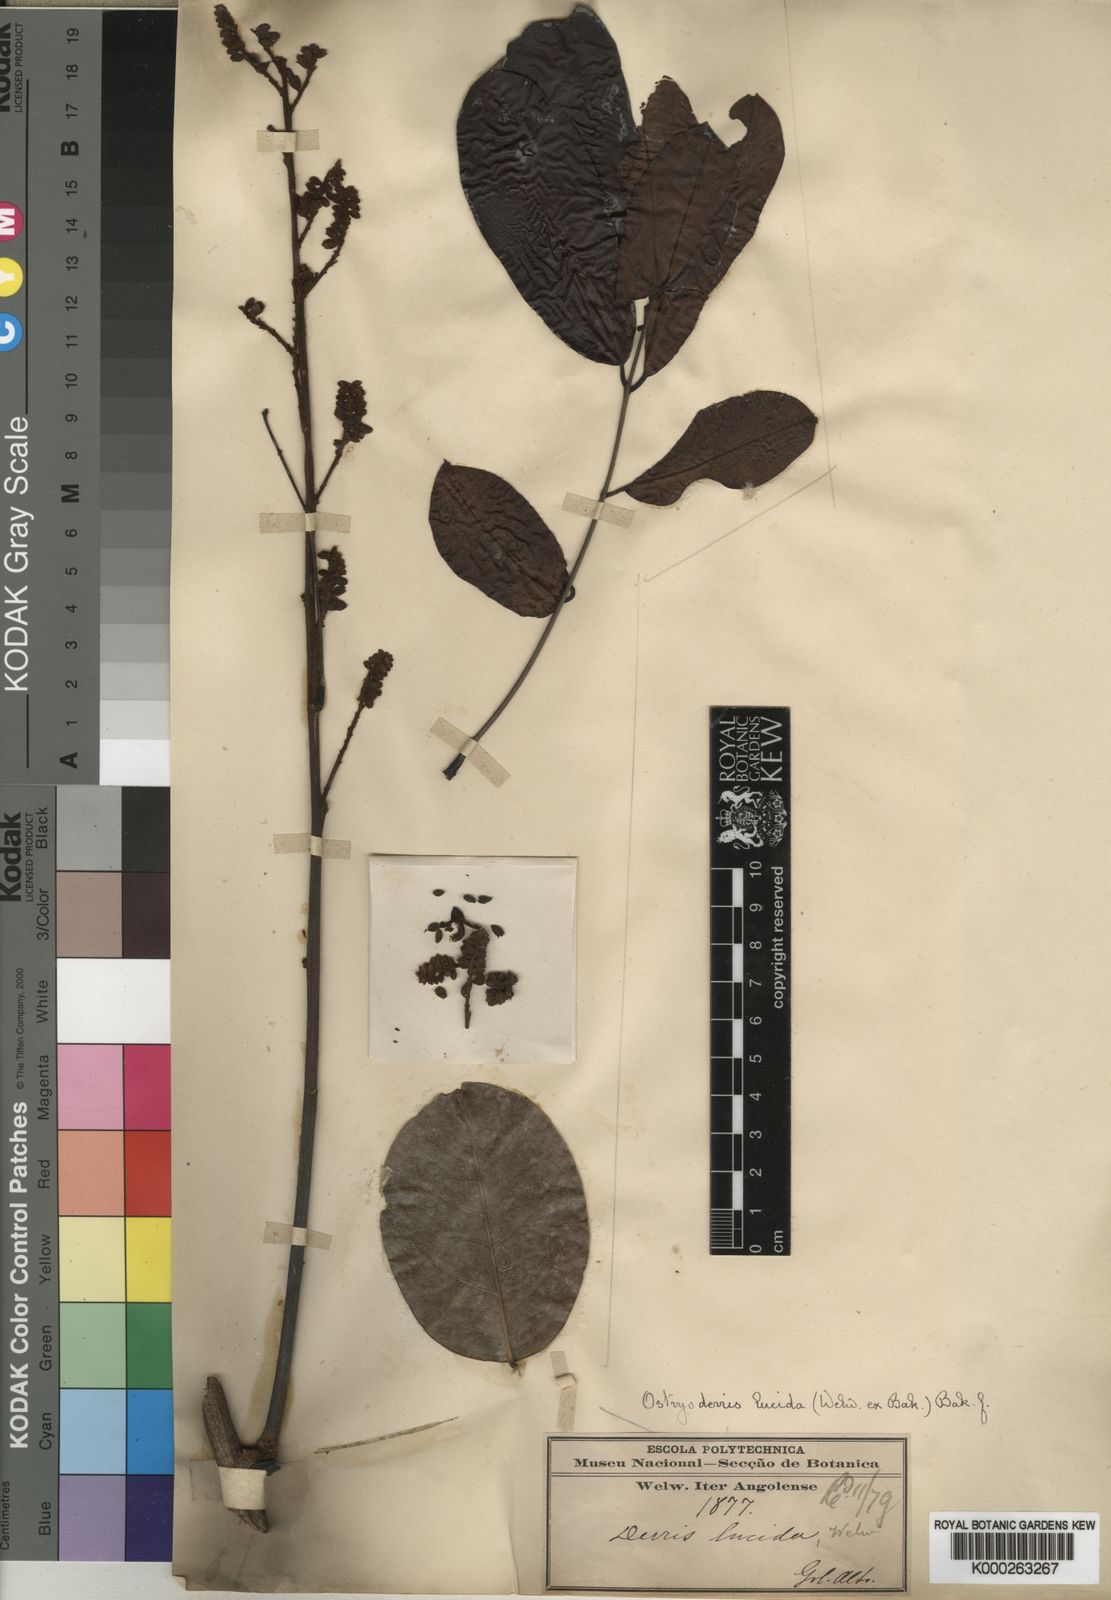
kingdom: Plantae
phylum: Tracheophyta
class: Magnoliopsida
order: Fabales
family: Fabaceae
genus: Aganope
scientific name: Aganope lucida
